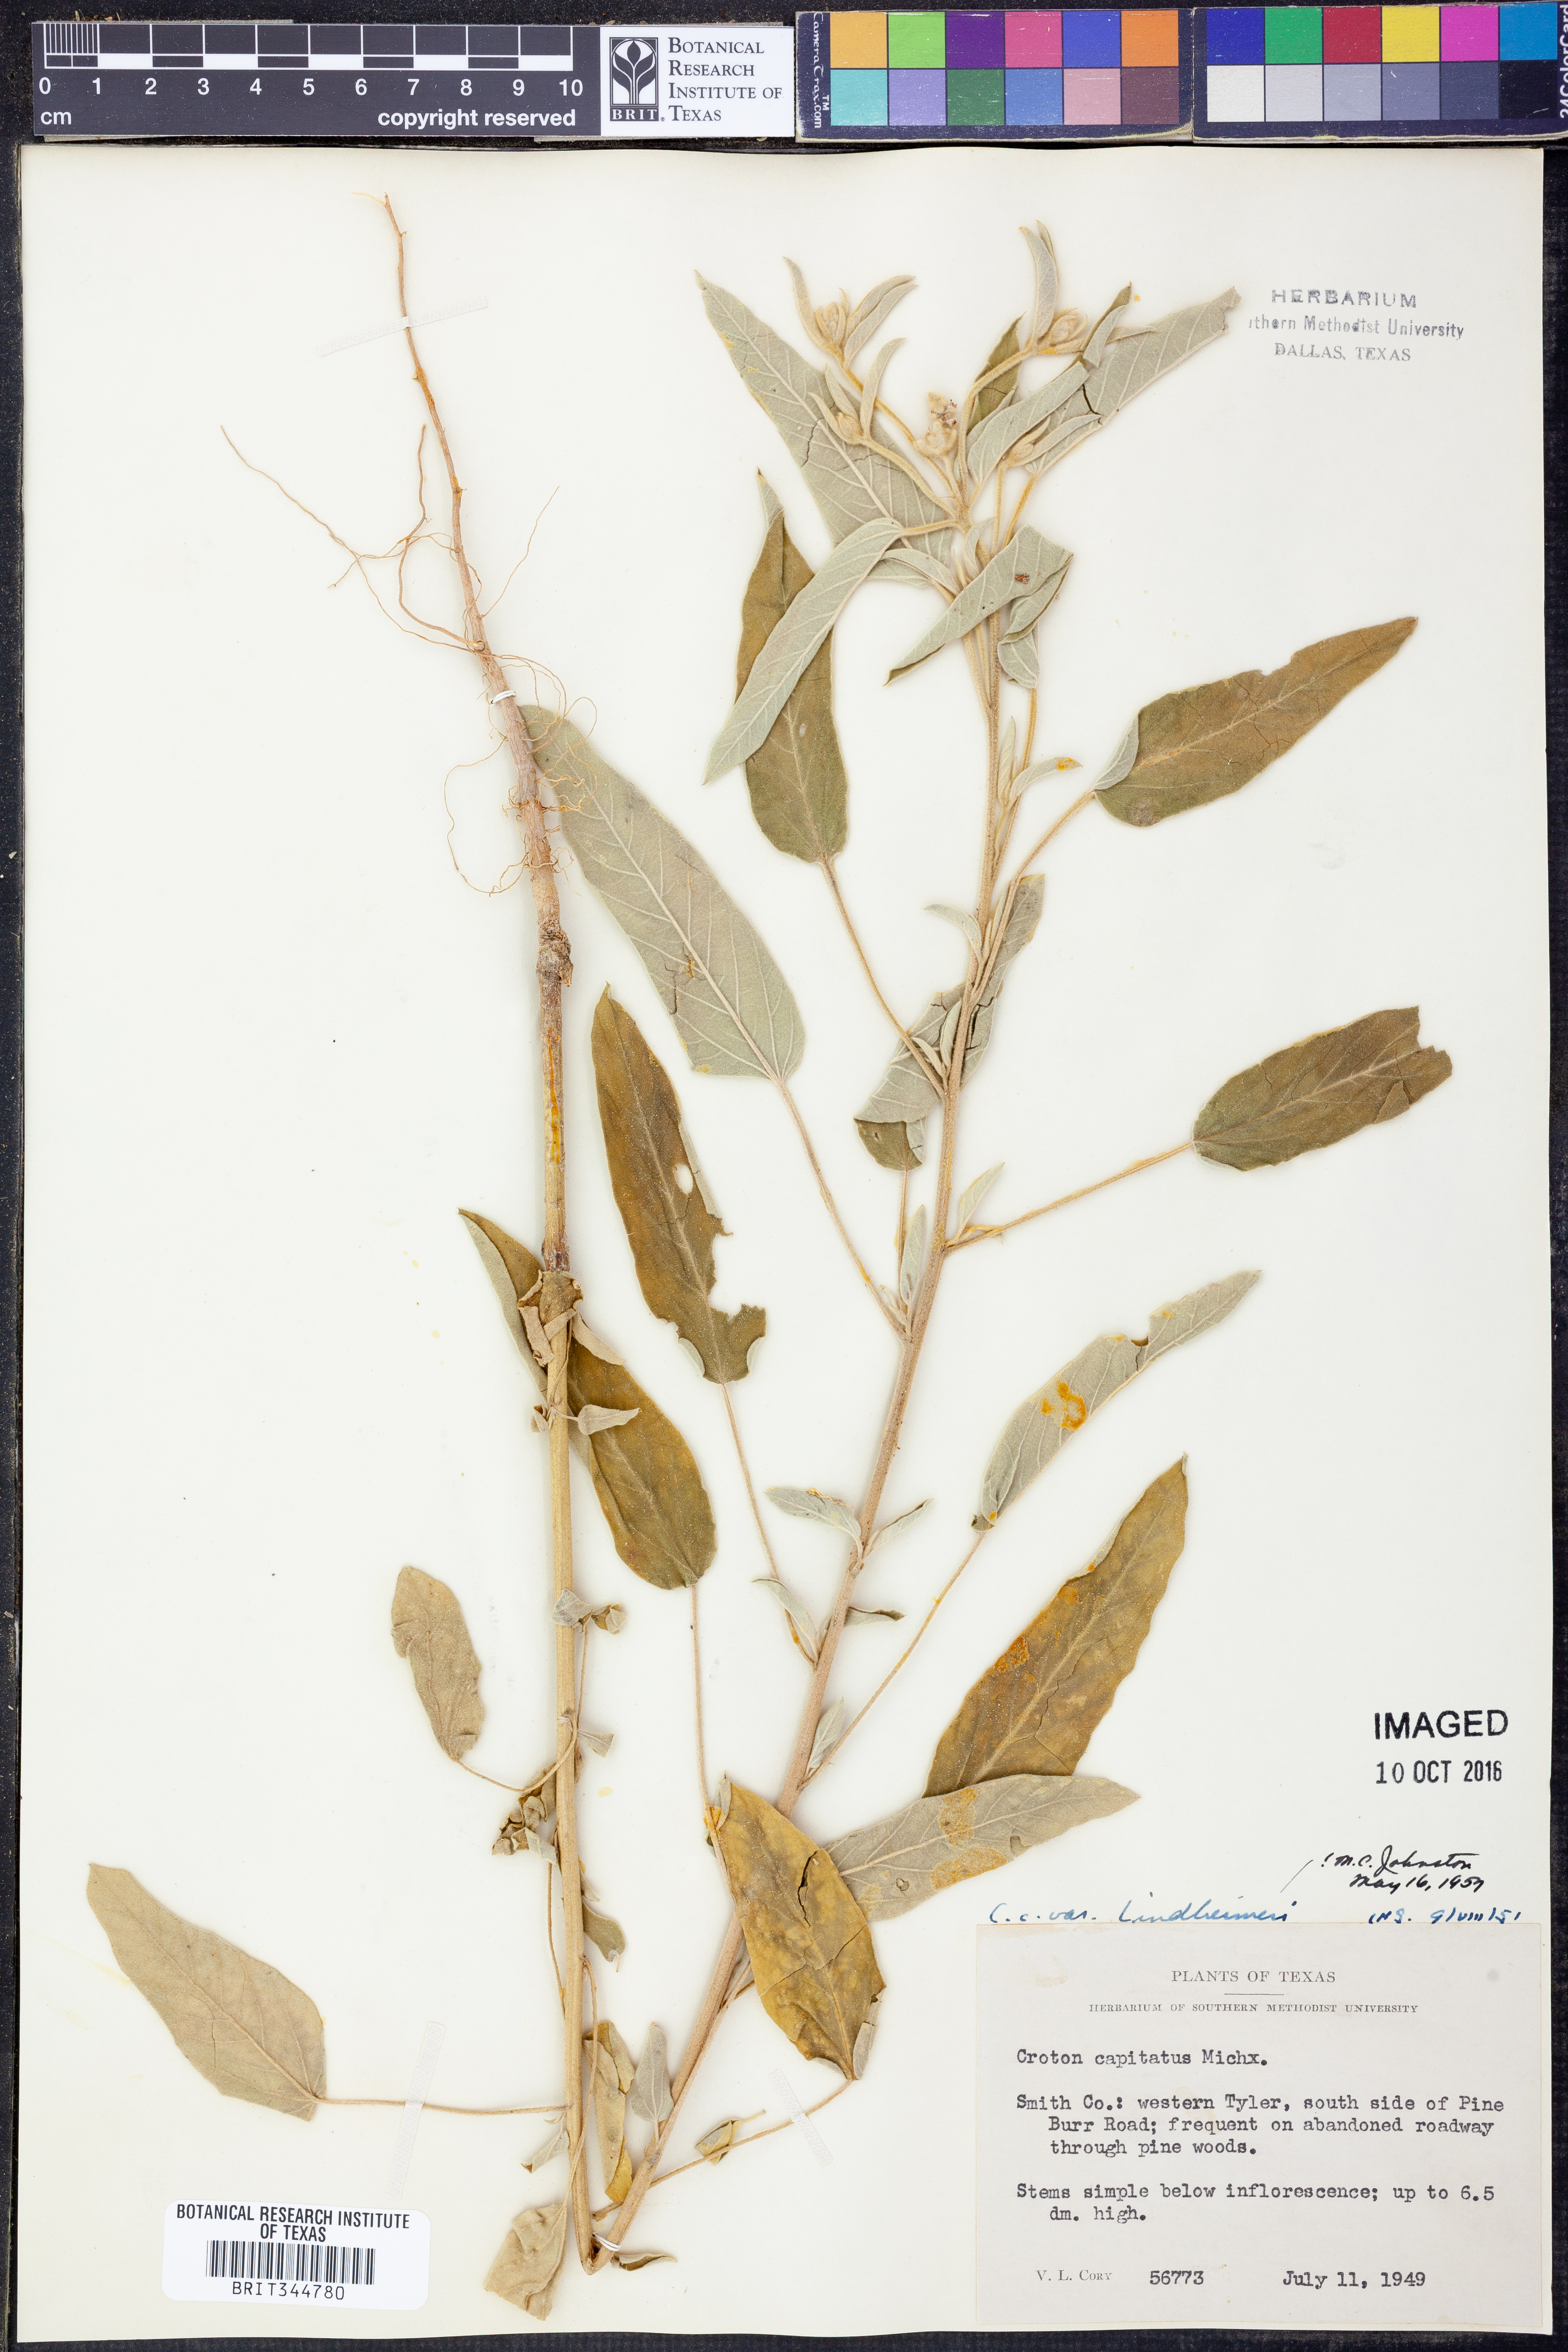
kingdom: Plantae
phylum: Tracheophyta
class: Magnoliopsida
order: Malpighiales
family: Euphorbiaceae
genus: Croton
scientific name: Croton lindheimeri
